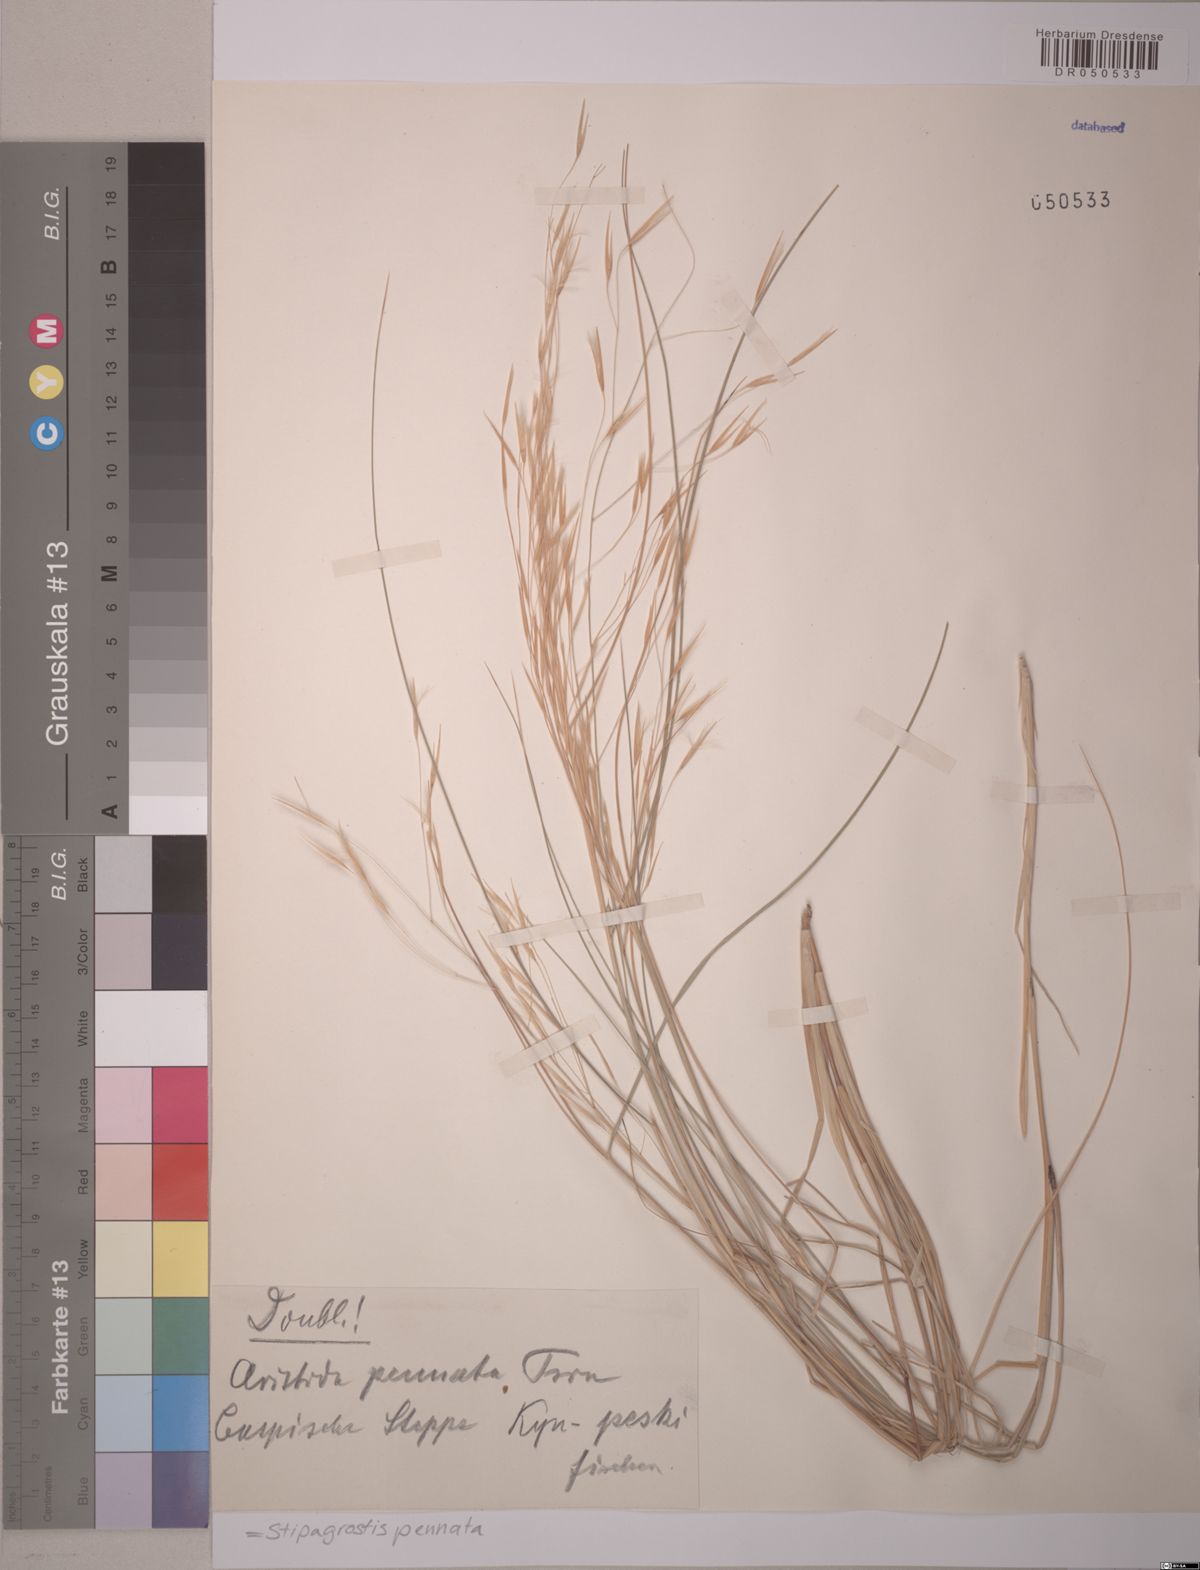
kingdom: Plantae
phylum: Tracheophyta
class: Liliopsida
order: Poales
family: Poaceae
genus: Stipagrostis
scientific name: Stipagrostis pennata
